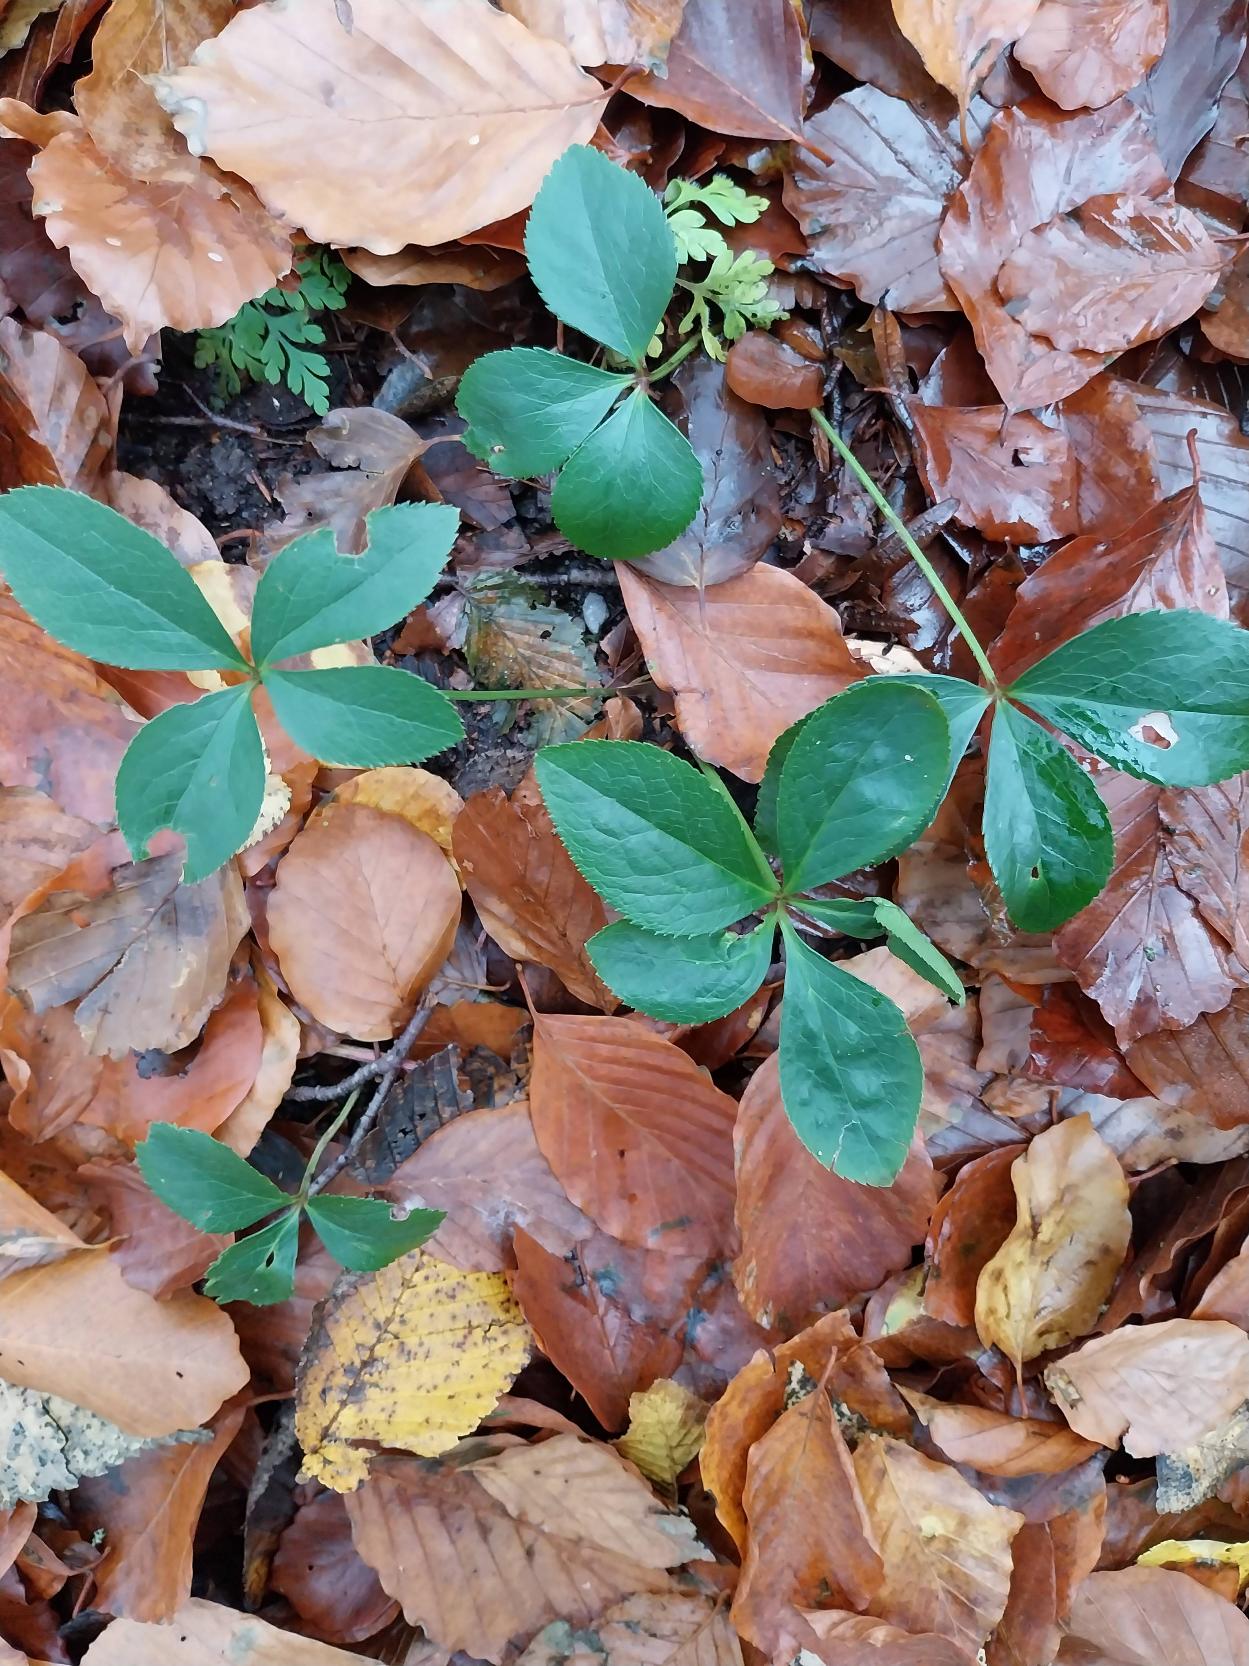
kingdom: Plantae
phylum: Tracheophyta
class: Magnoliopsida
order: Ranunculales
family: Ranunculaceae
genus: Helleborus
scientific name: Helleborus orientalis
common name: Storblomstret julerose
